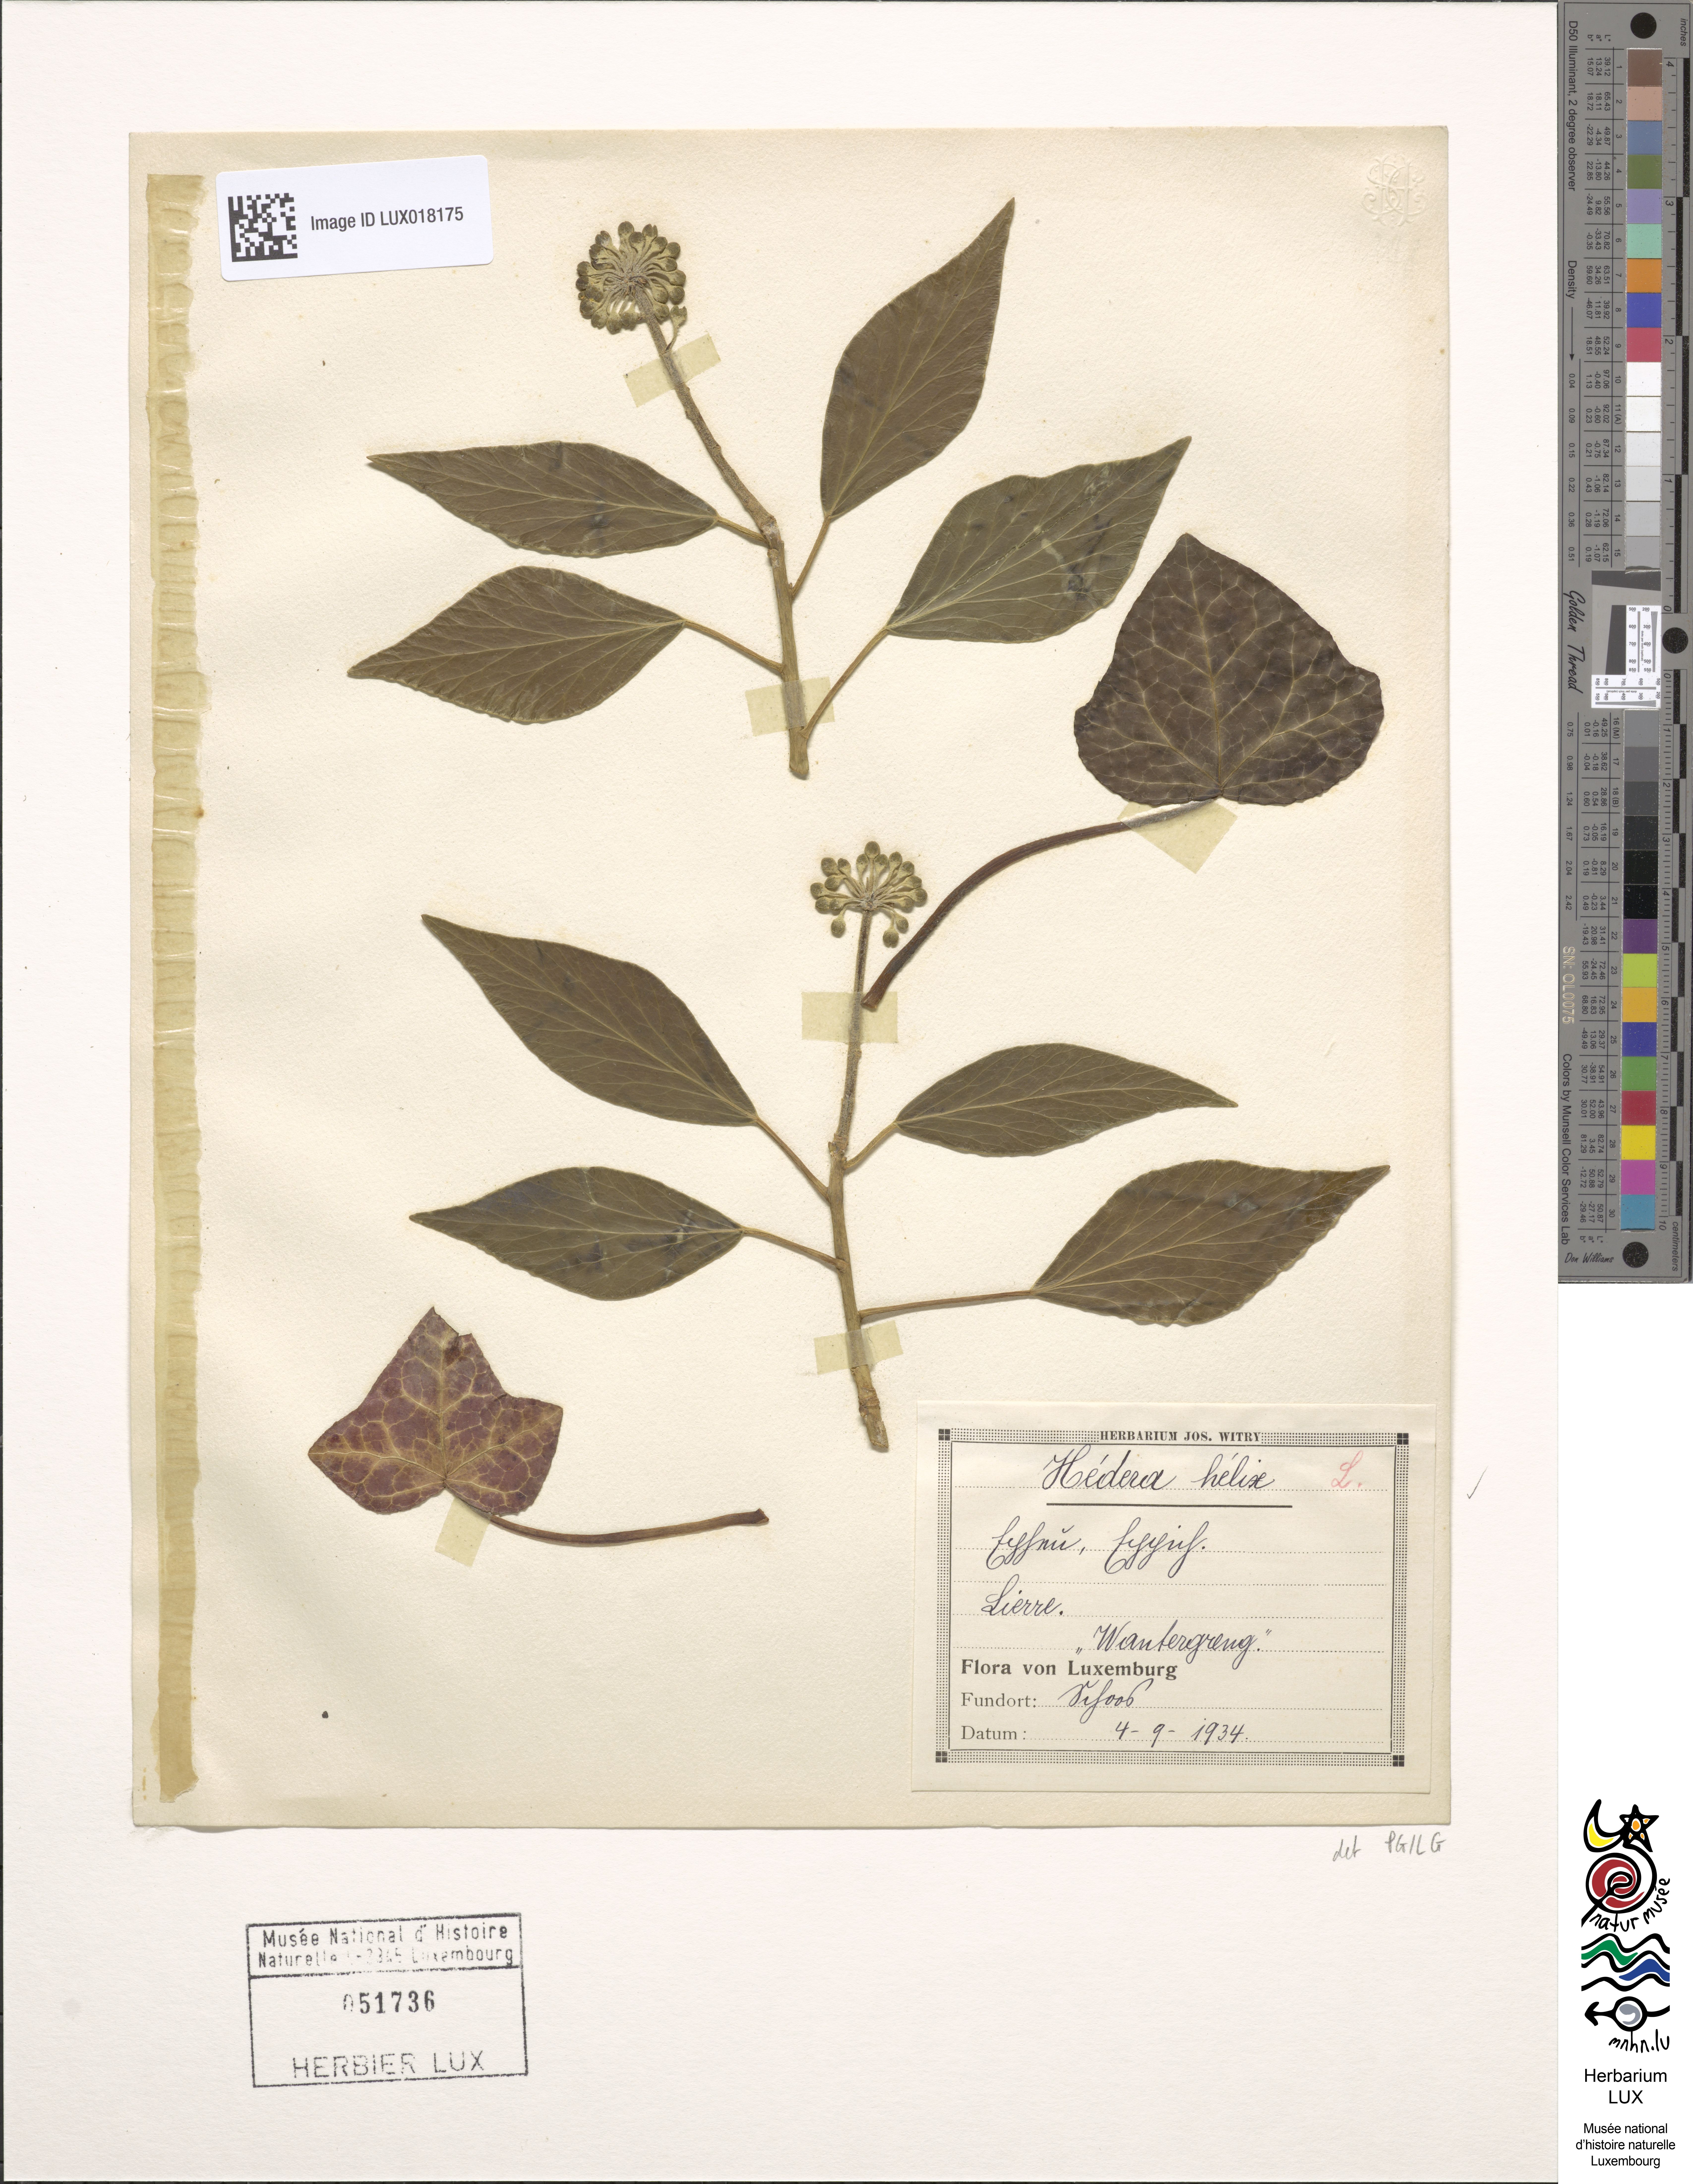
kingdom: Plantae
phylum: Tracheophyta
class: Magnoliopsida
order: Apiales
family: Araliaceae
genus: Hedera
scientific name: Hedera helix
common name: Ivy
